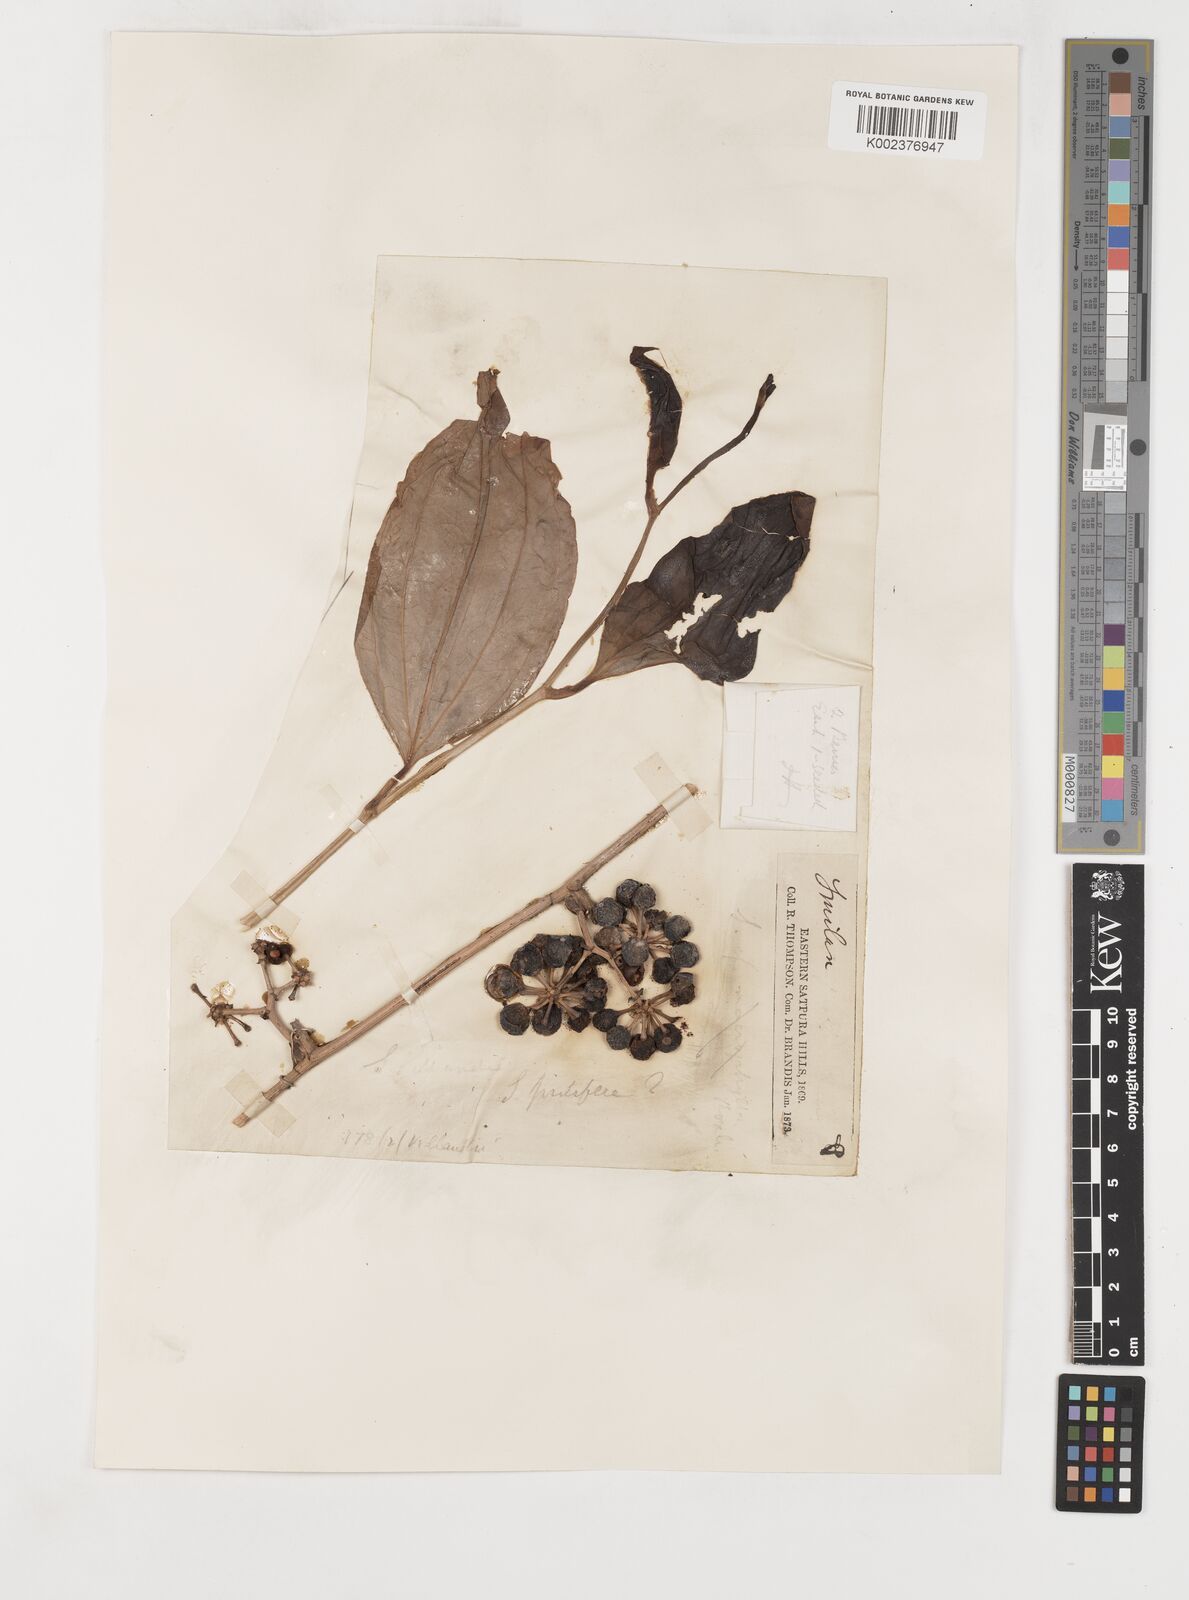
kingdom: Plantae
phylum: Tracheophyta
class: Liliopsida
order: Liliales
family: Smilacaceae
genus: Smilax
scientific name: Smilax zeylanica
